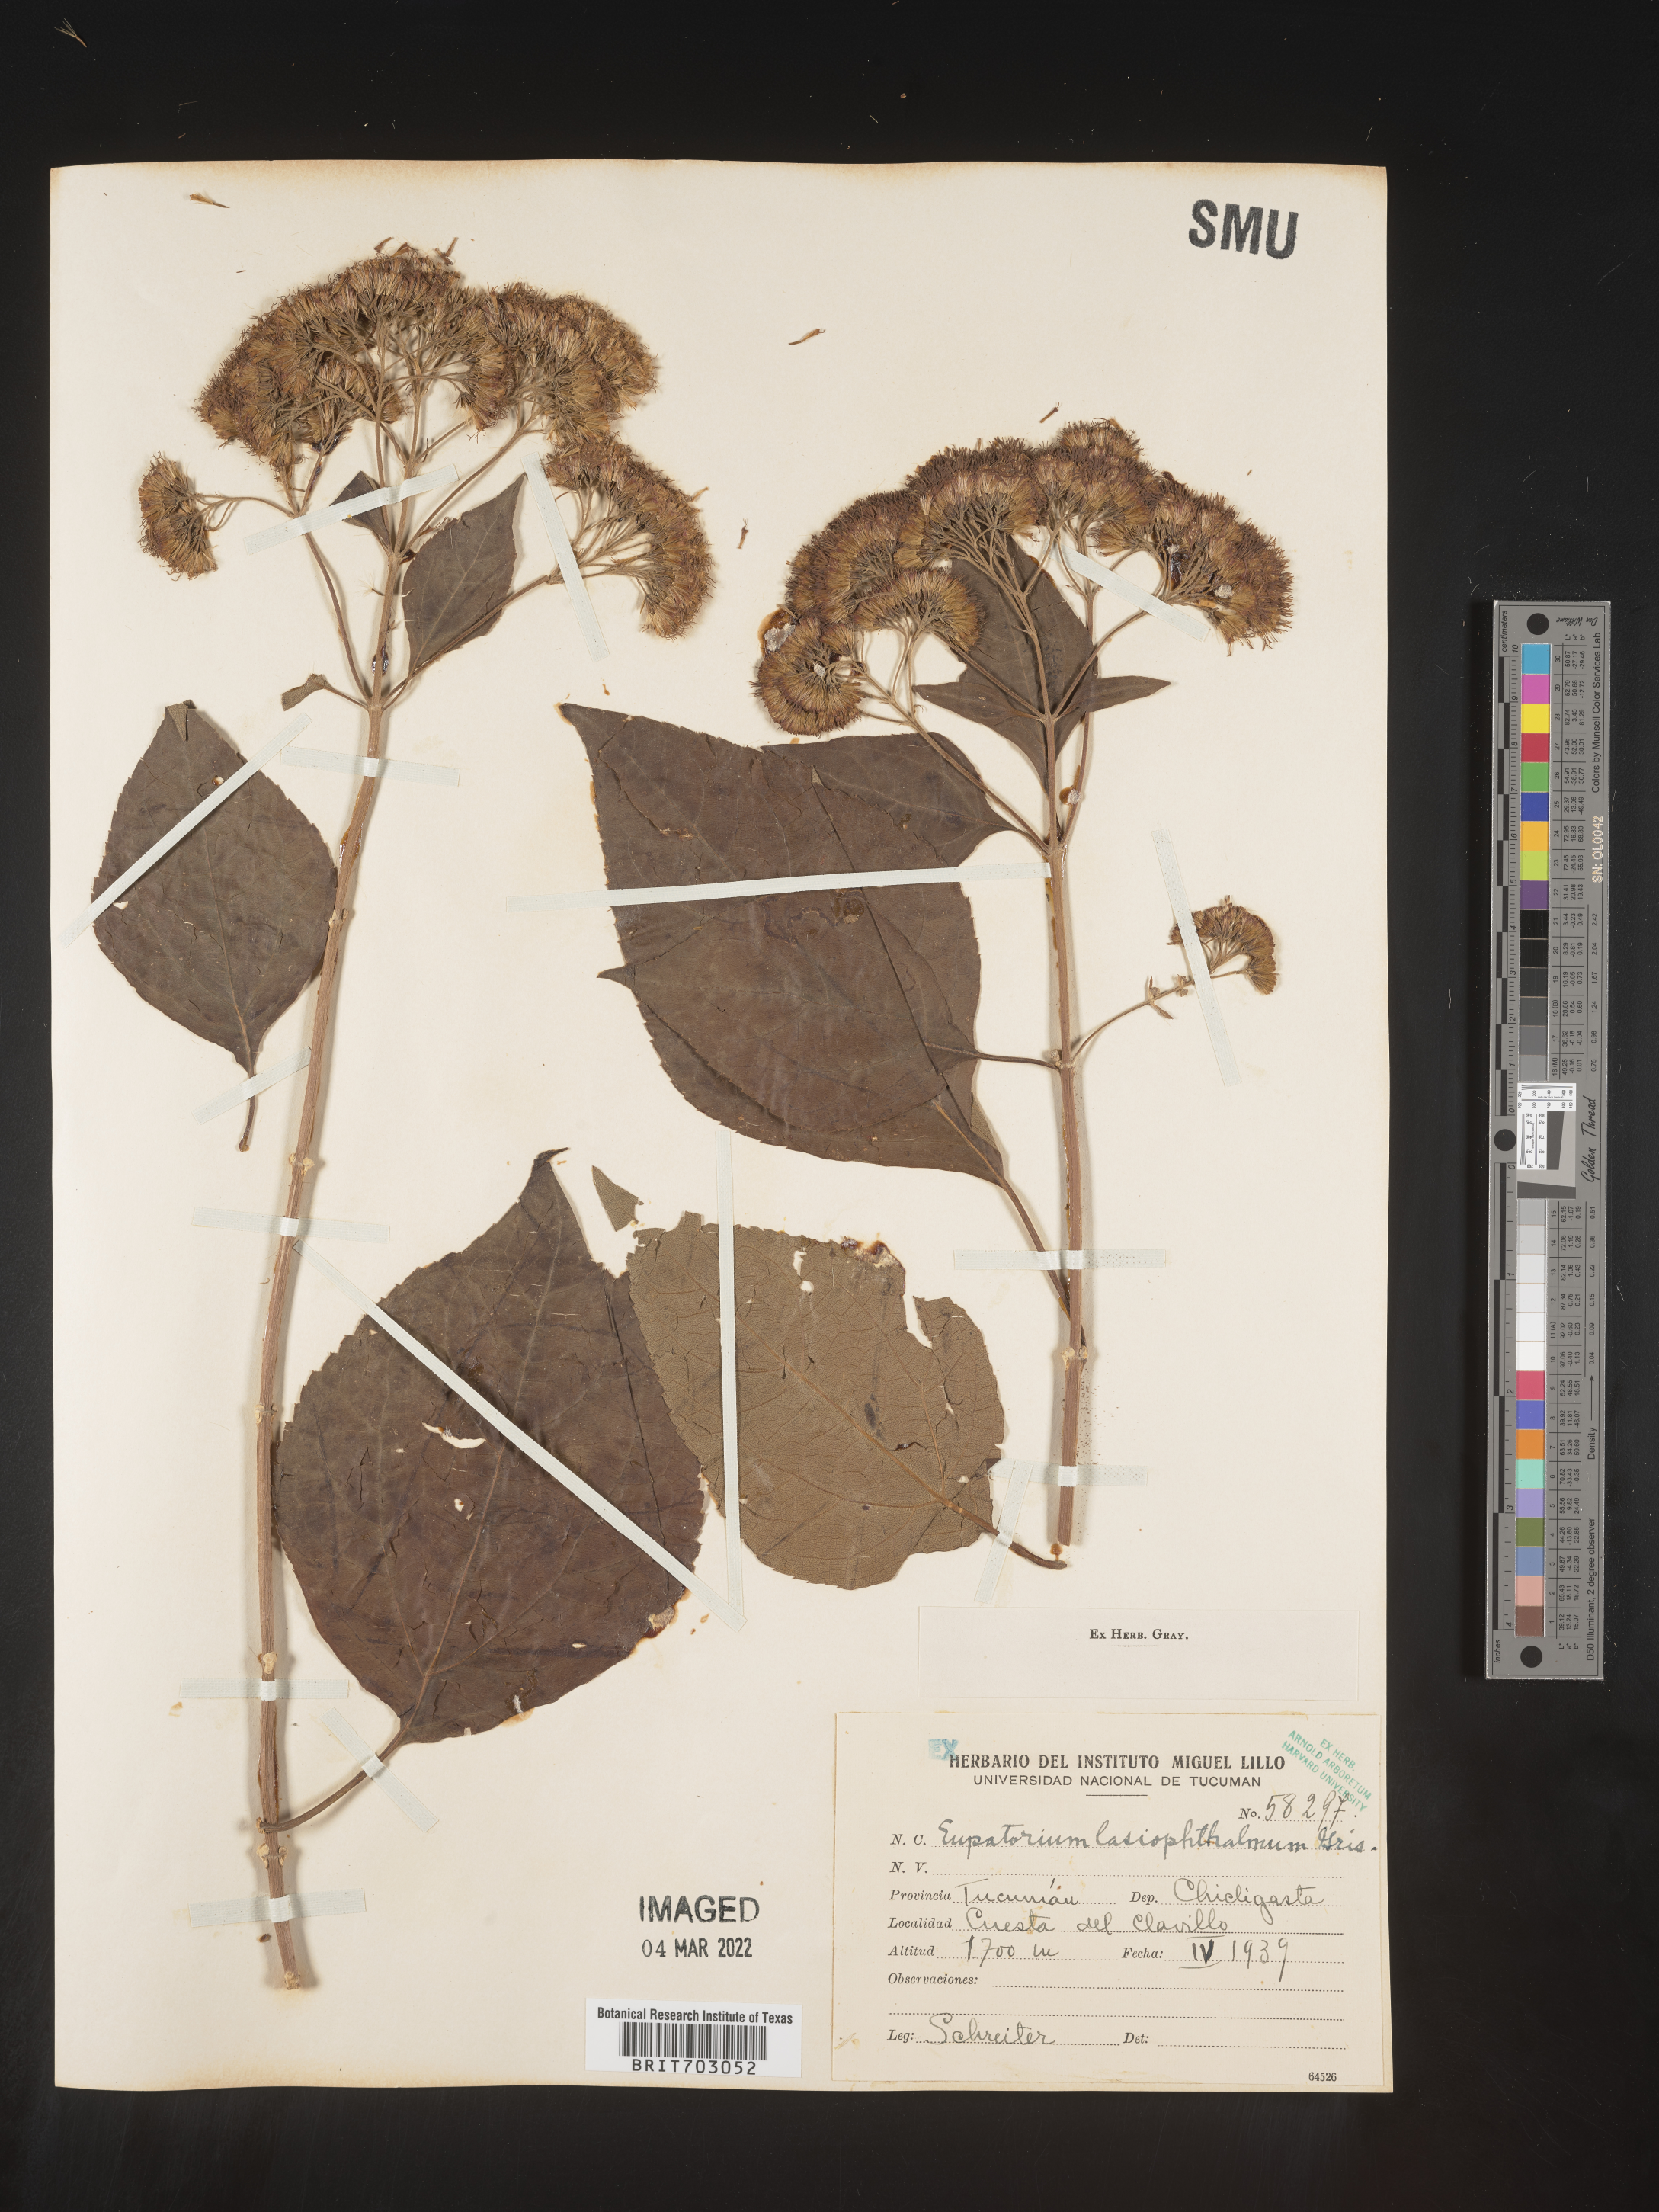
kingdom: Plantae
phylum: Tracheophyta
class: Magnoliopsida
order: Asterales
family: Asteraceae
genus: Eupatorium
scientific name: Eupatorium
